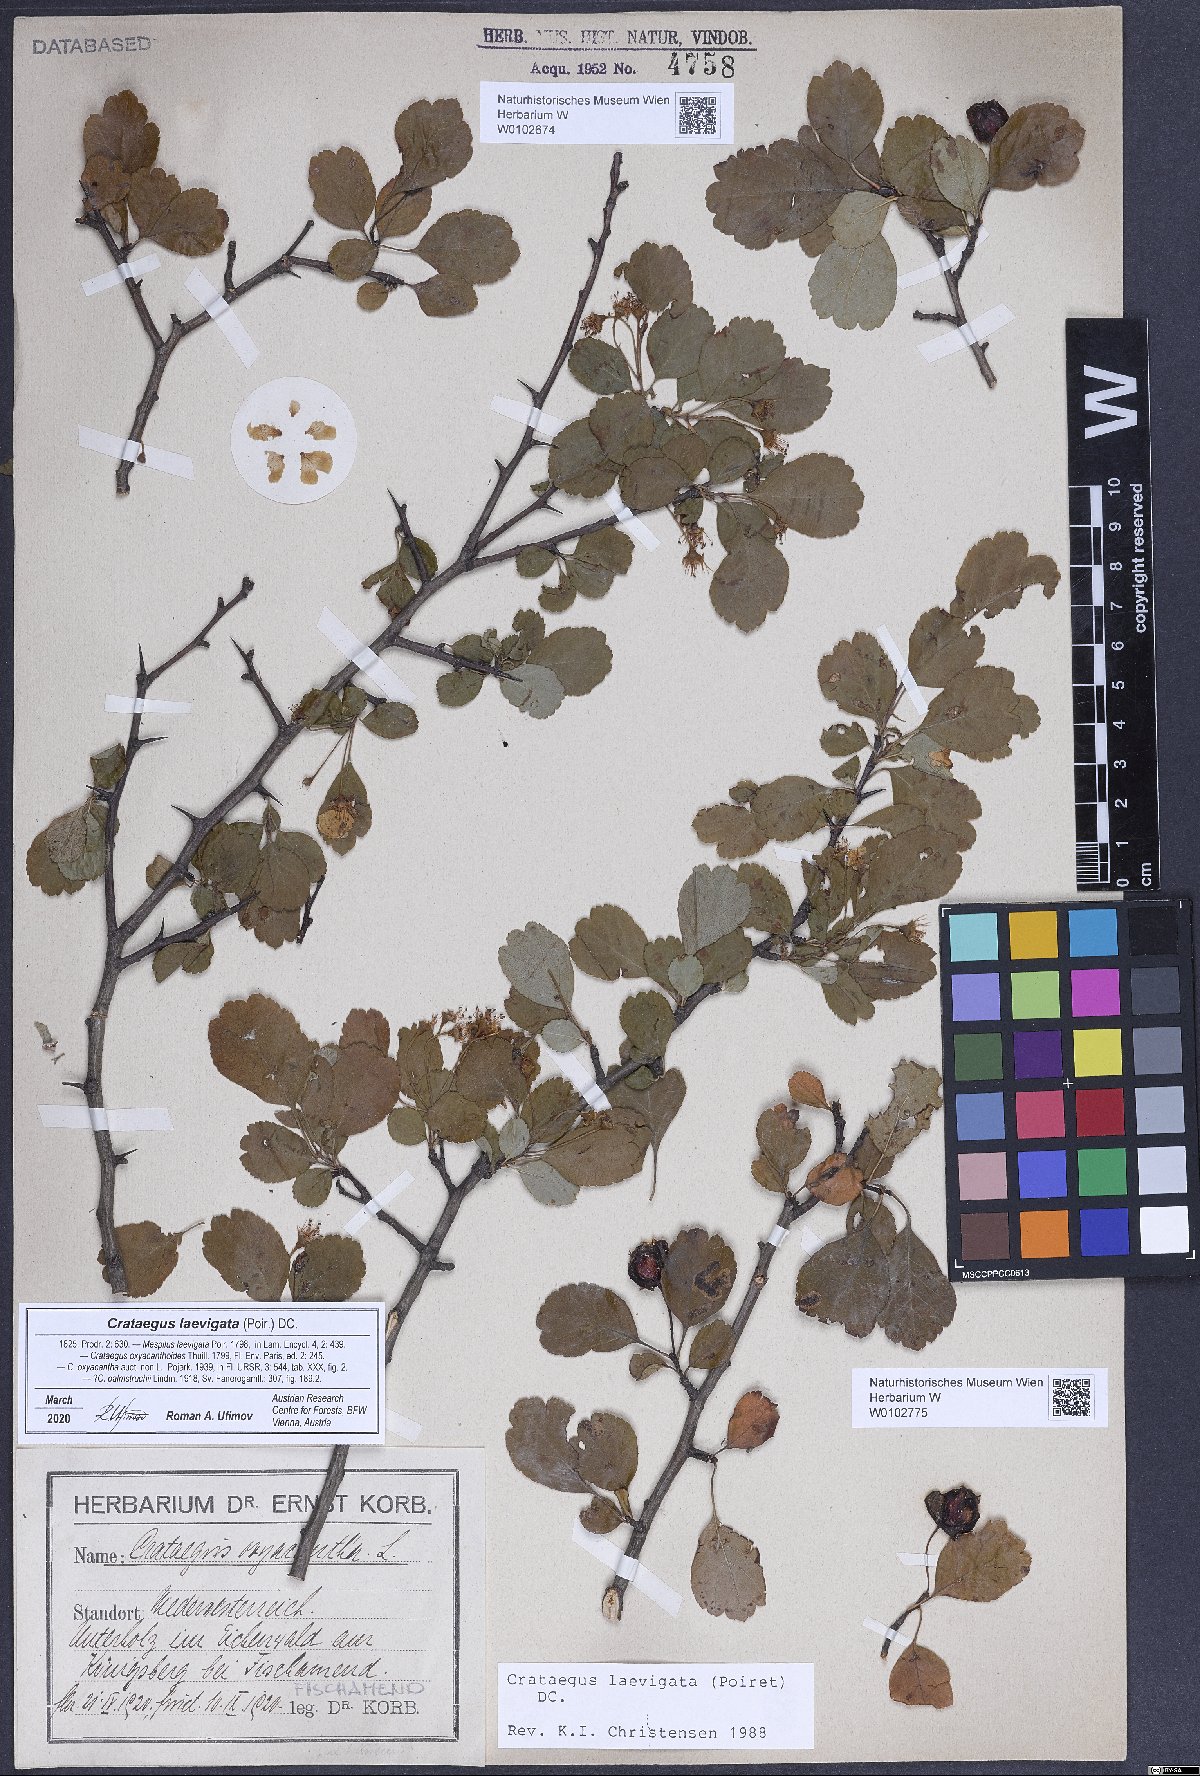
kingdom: Plantae
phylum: Tracheophyta
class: Magnoliopsida
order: Rosales
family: Rosaceae
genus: Crataegus
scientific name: Crataegus laevigata
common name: Midland hawthorn
